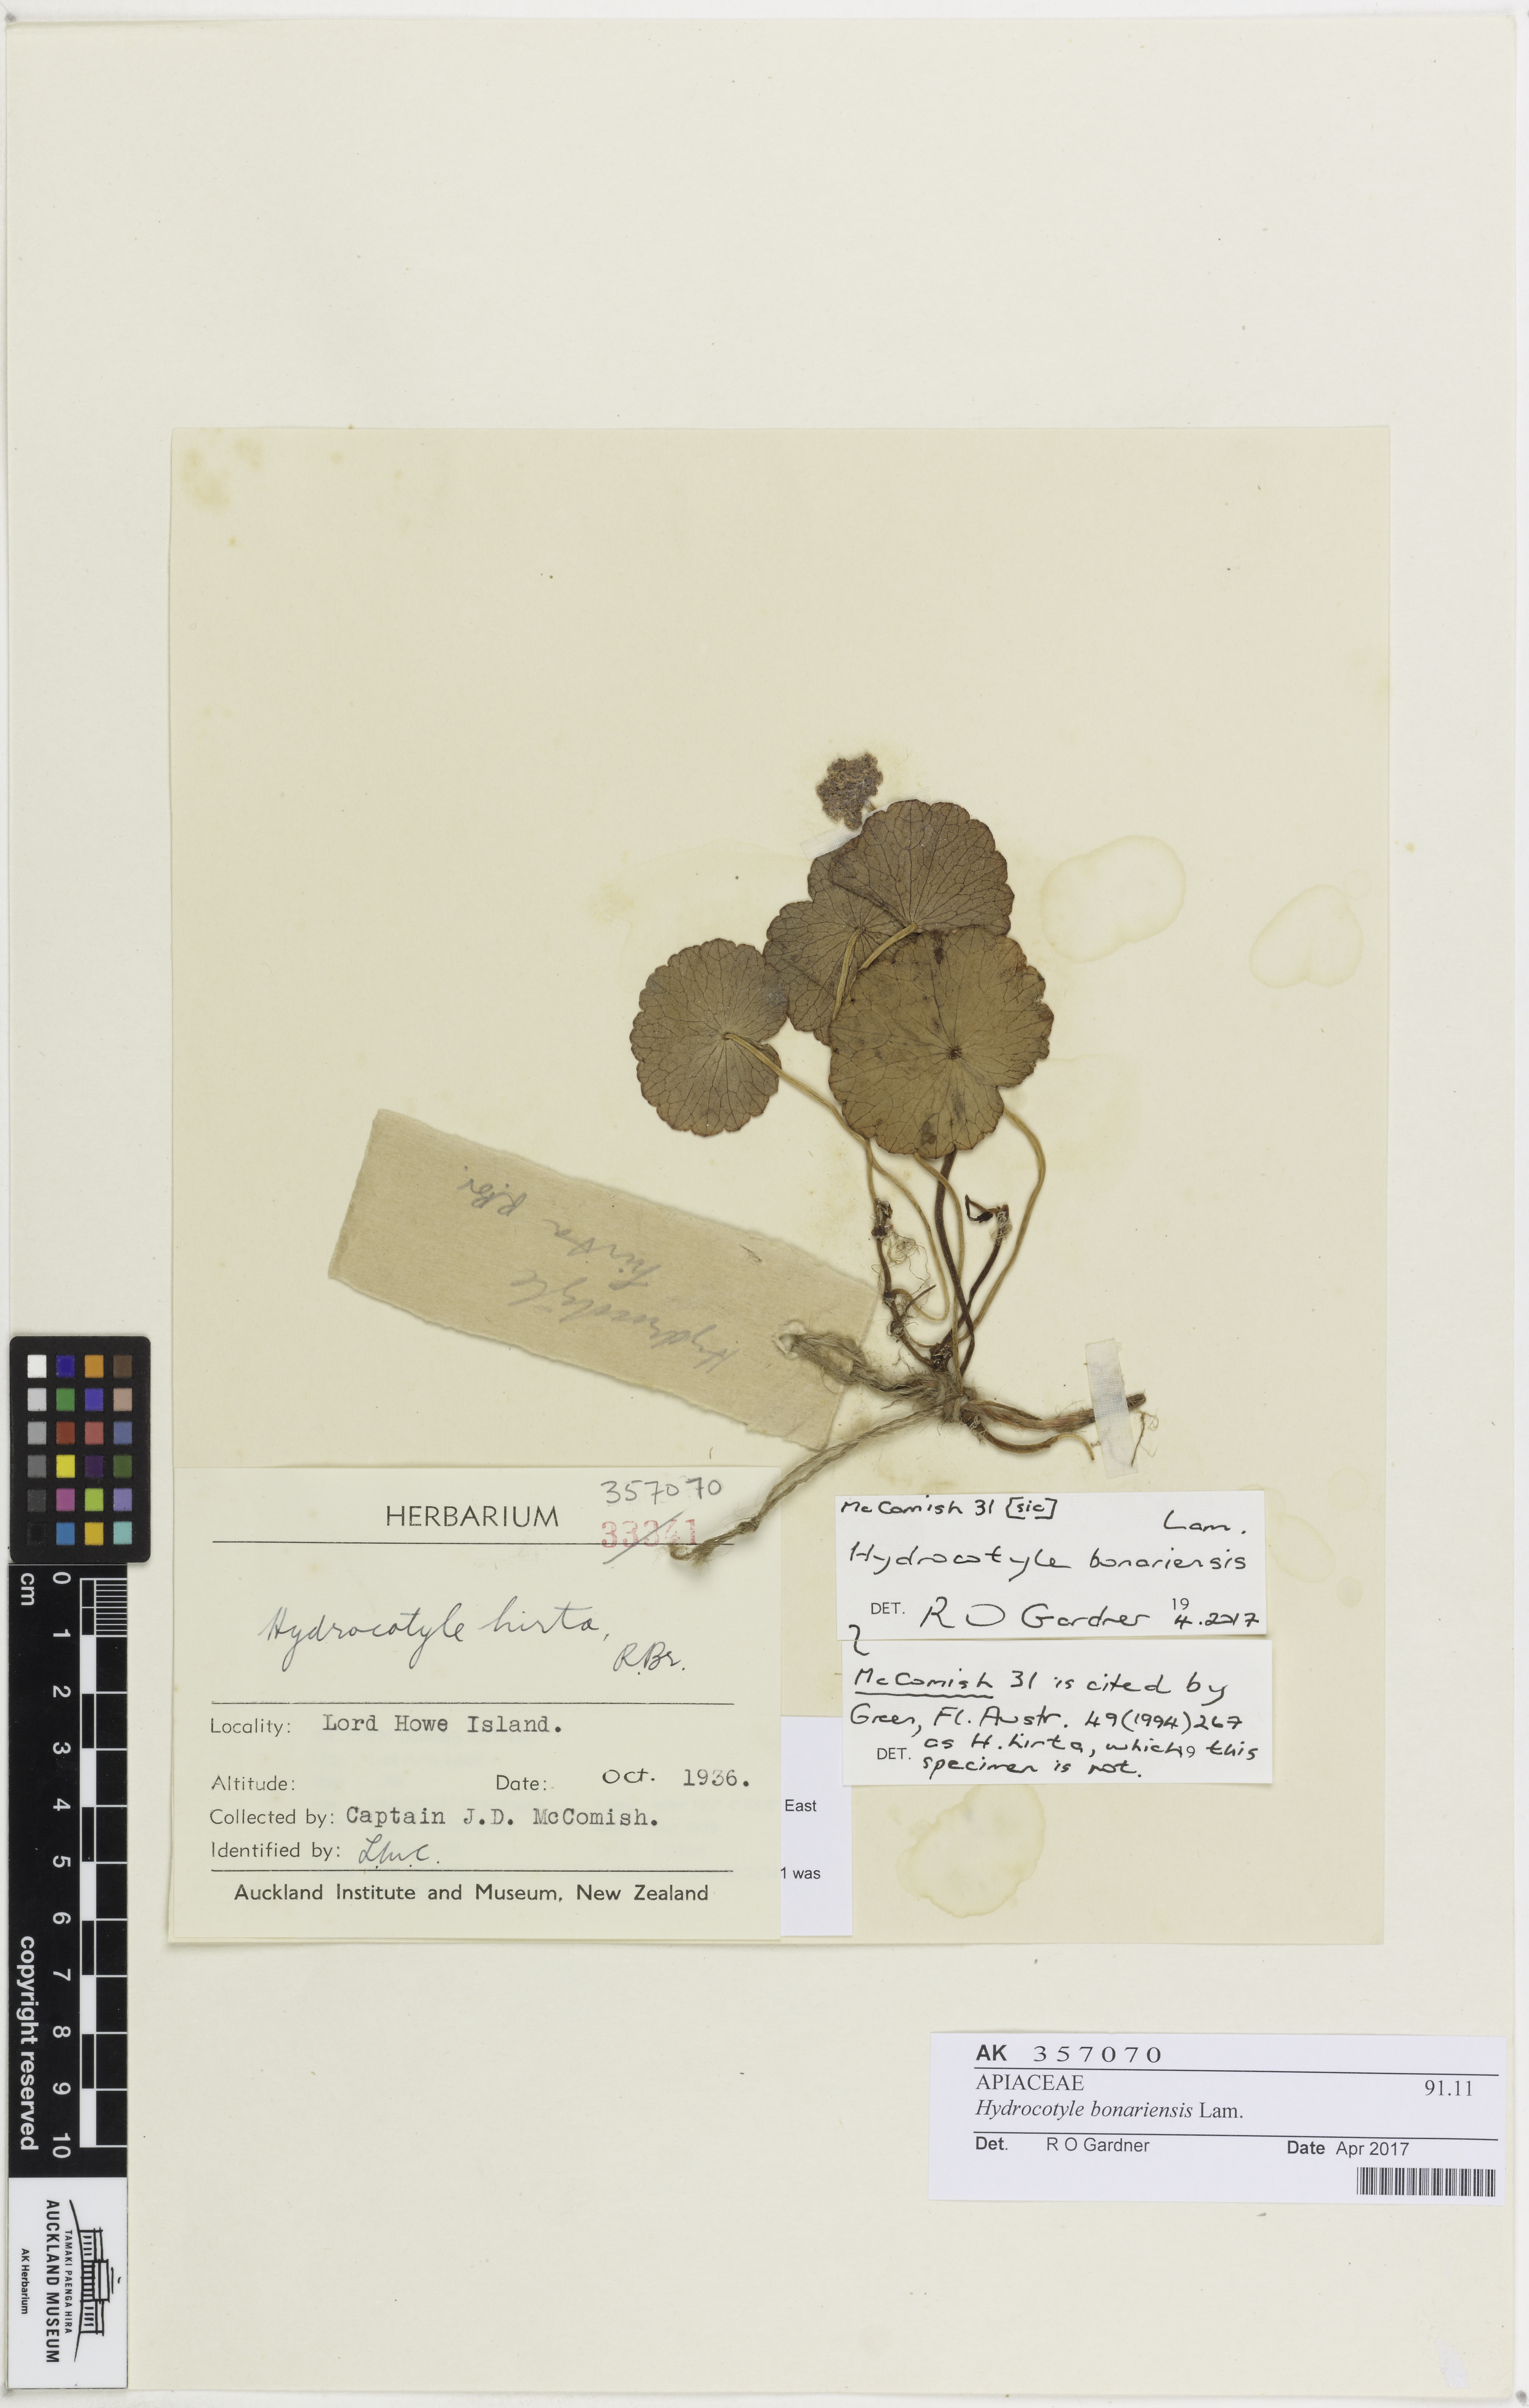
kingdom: Plantae
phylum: Tracheophyta
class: Magnoliopsida
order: Apiales
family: Araliaceae
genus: Hydrocotyle
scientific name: Hydrocotyle bonariensis
